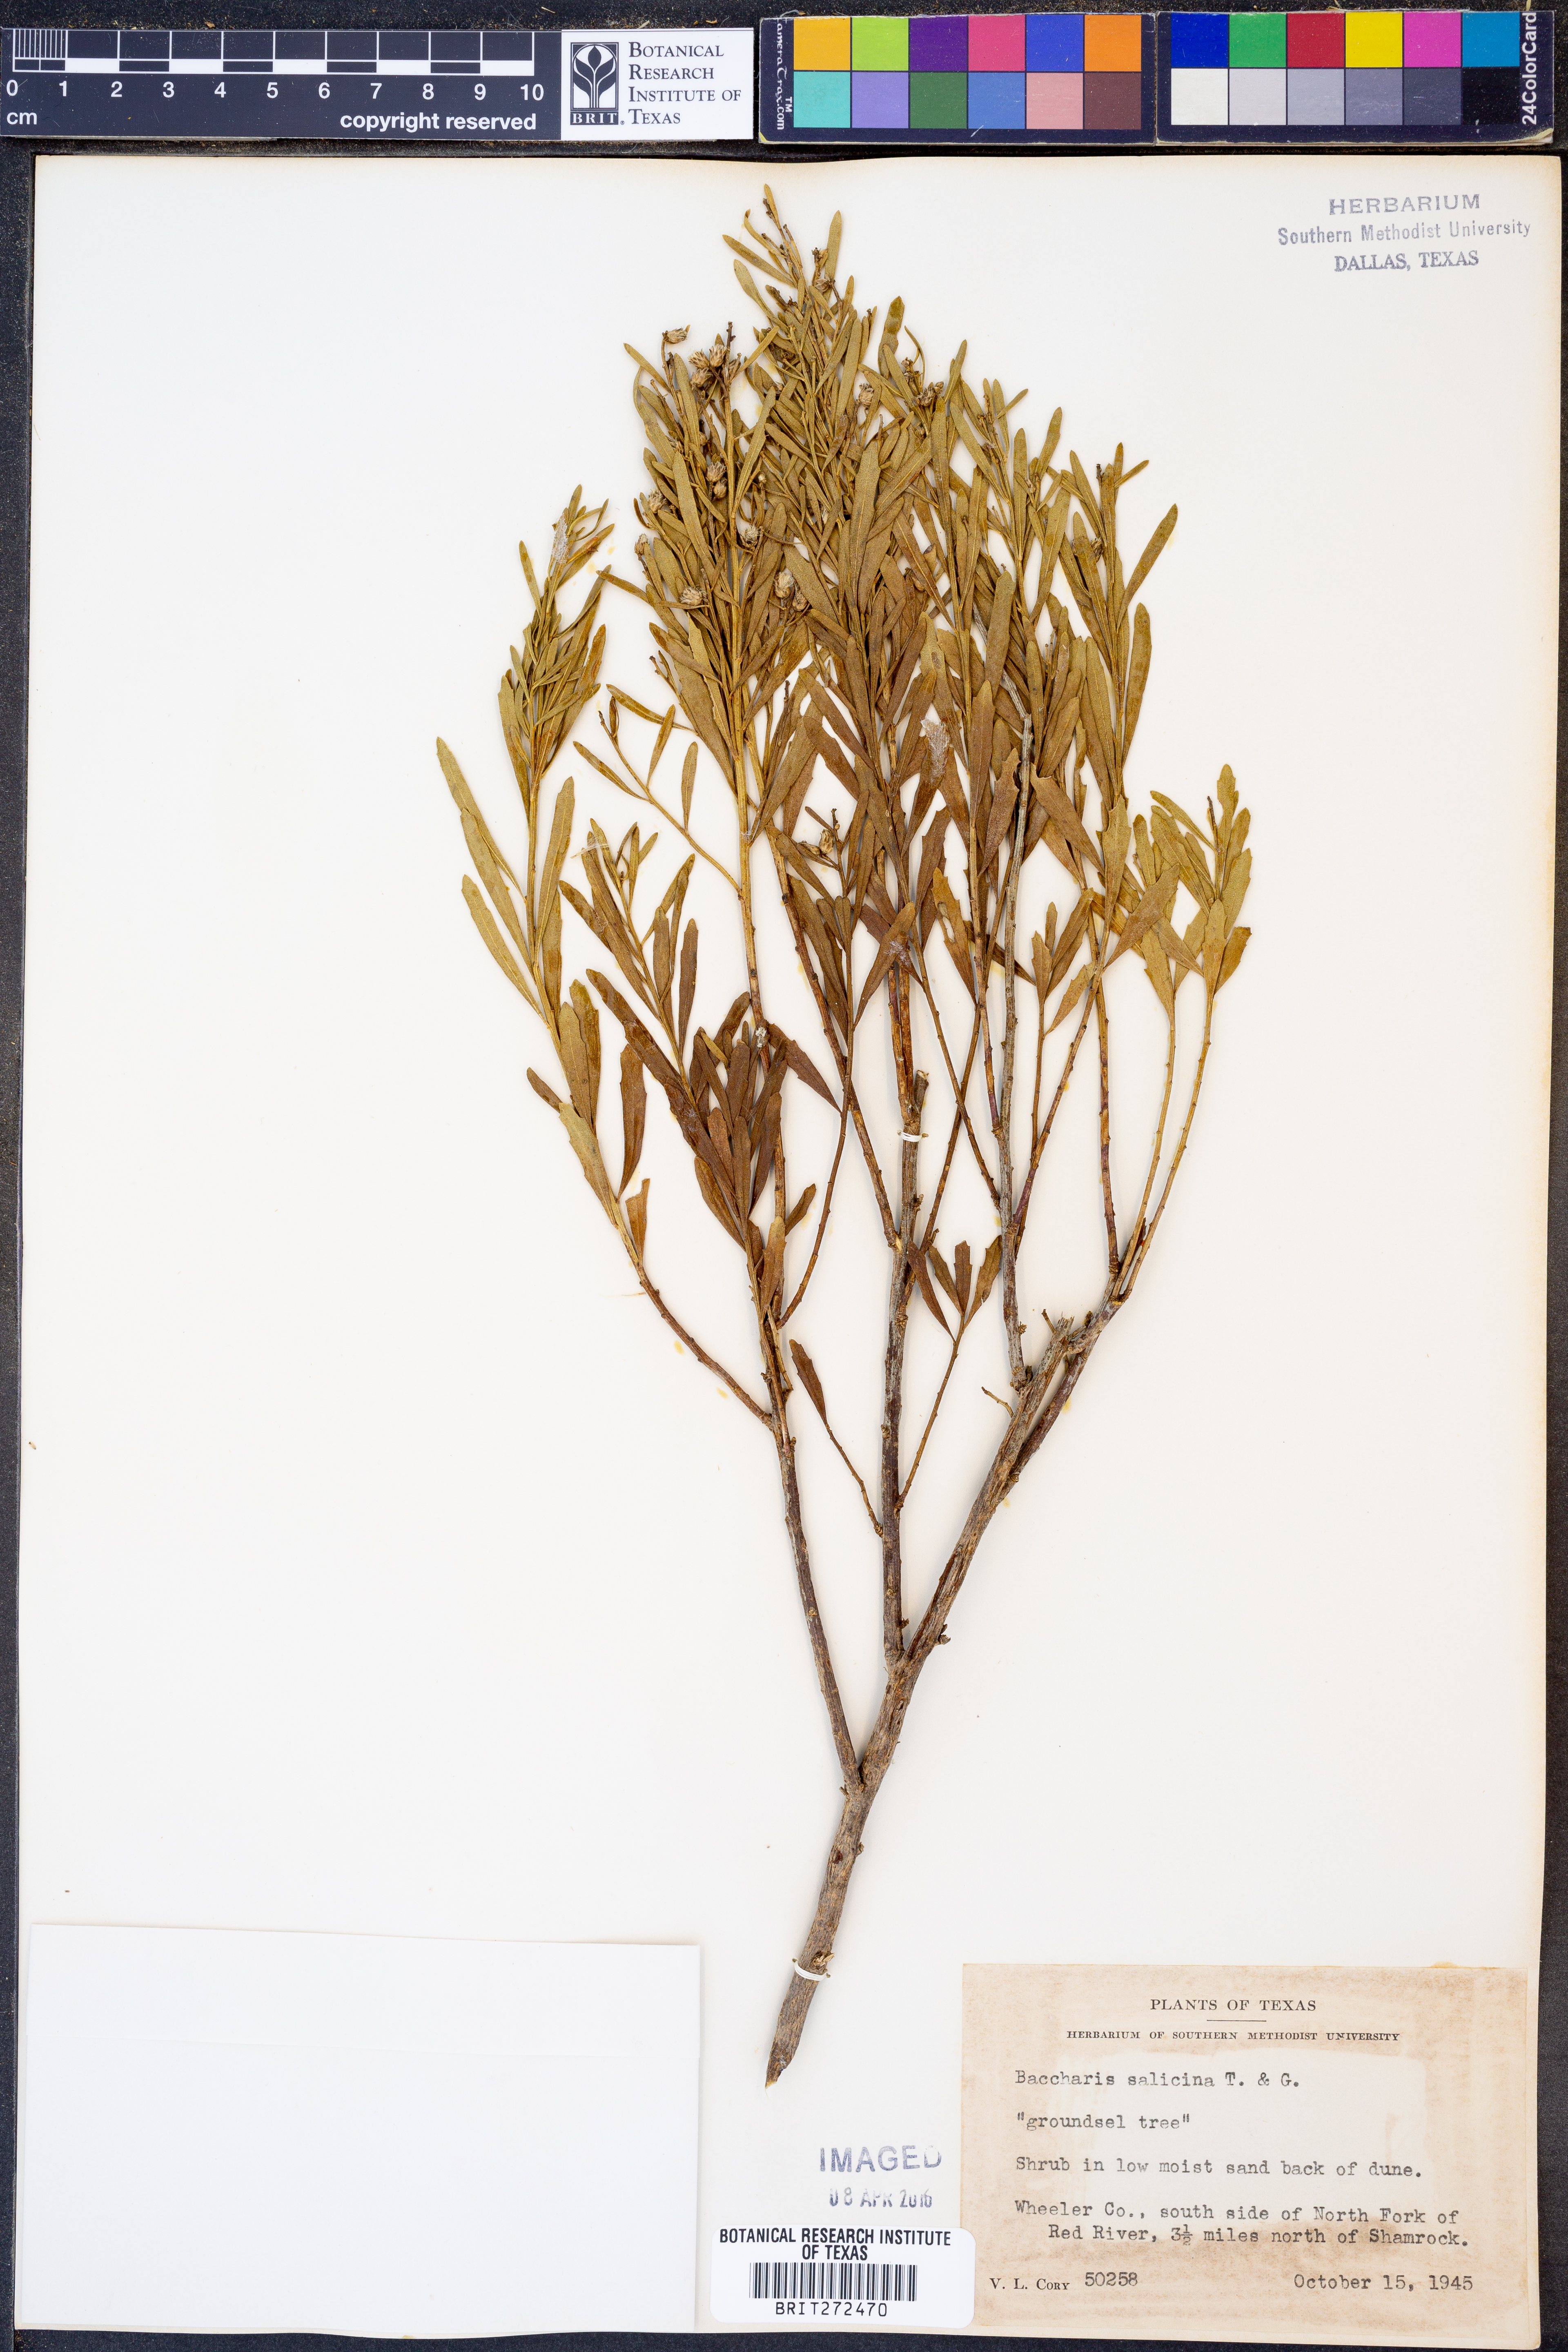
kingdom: Plantae
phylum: Tracheophyta
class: Magnoliopsida
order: Asterales
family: Asteraceae
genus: Baccharis
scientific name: Baccharis salicina
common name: Willow baccharis
